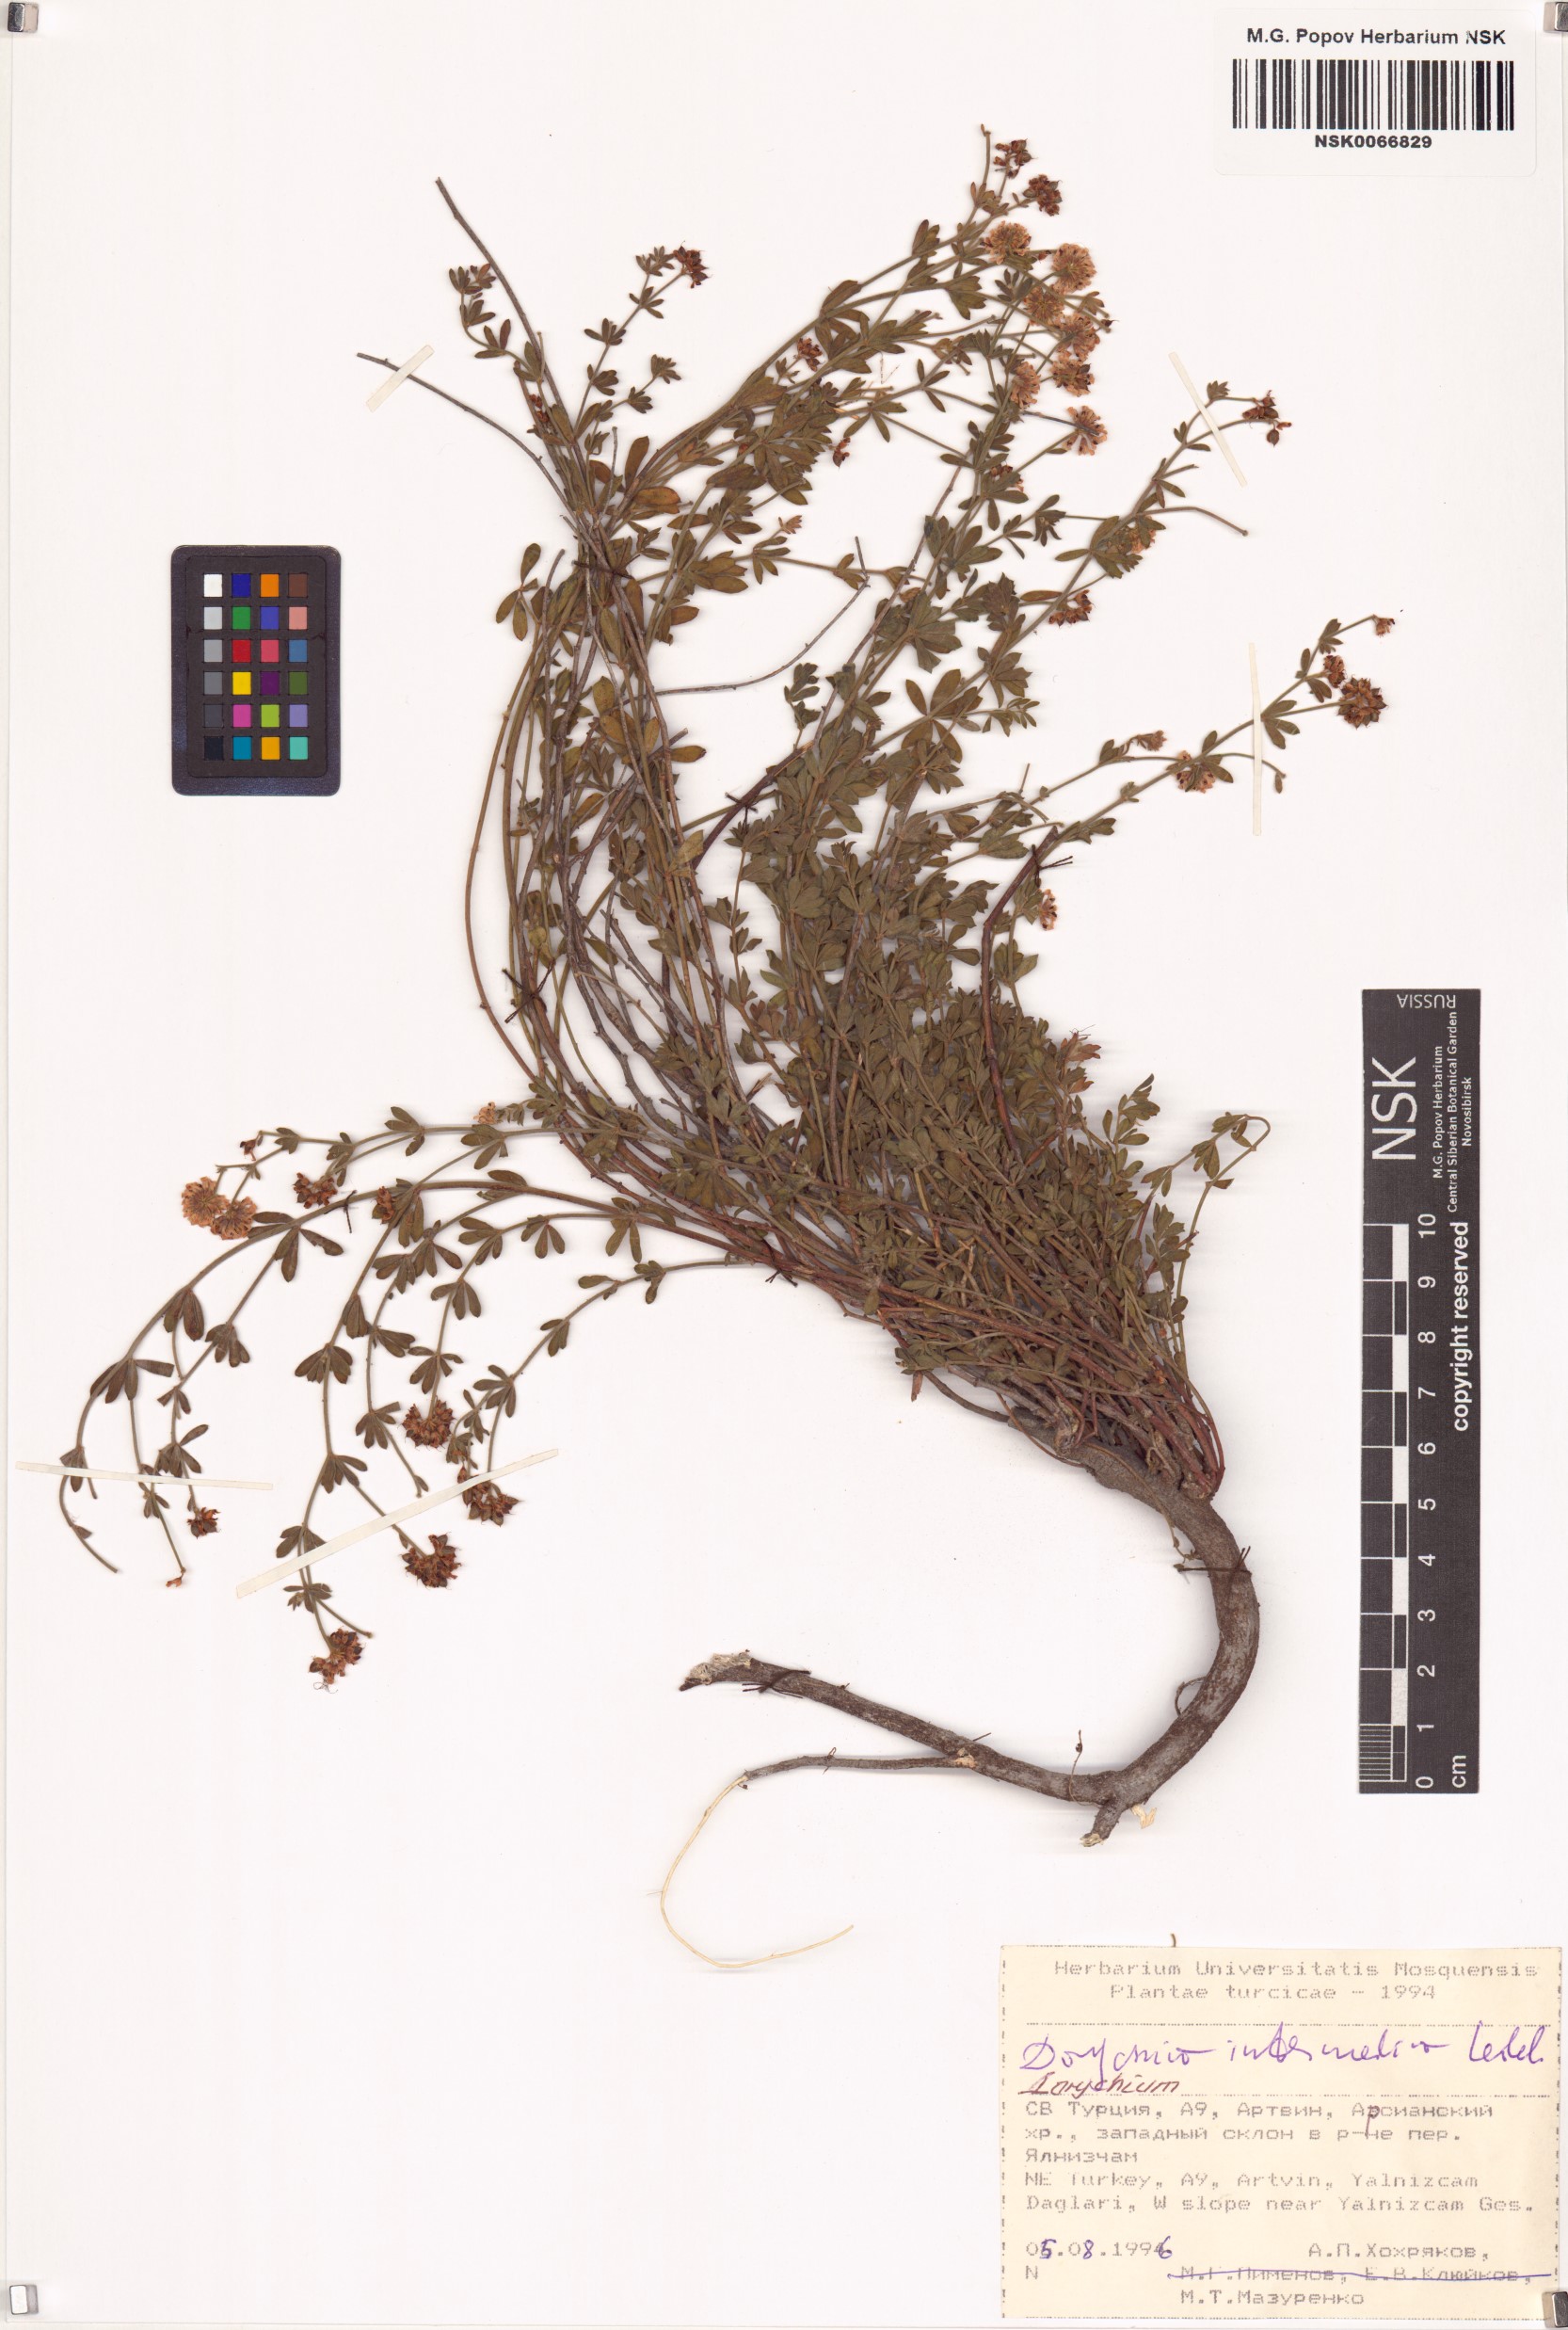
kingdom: Plantae
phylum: Tracheophyta
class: Magnoliopsida
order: Fabales
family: Fabaceae
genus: Lotus
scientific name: Lotus herbaceus
